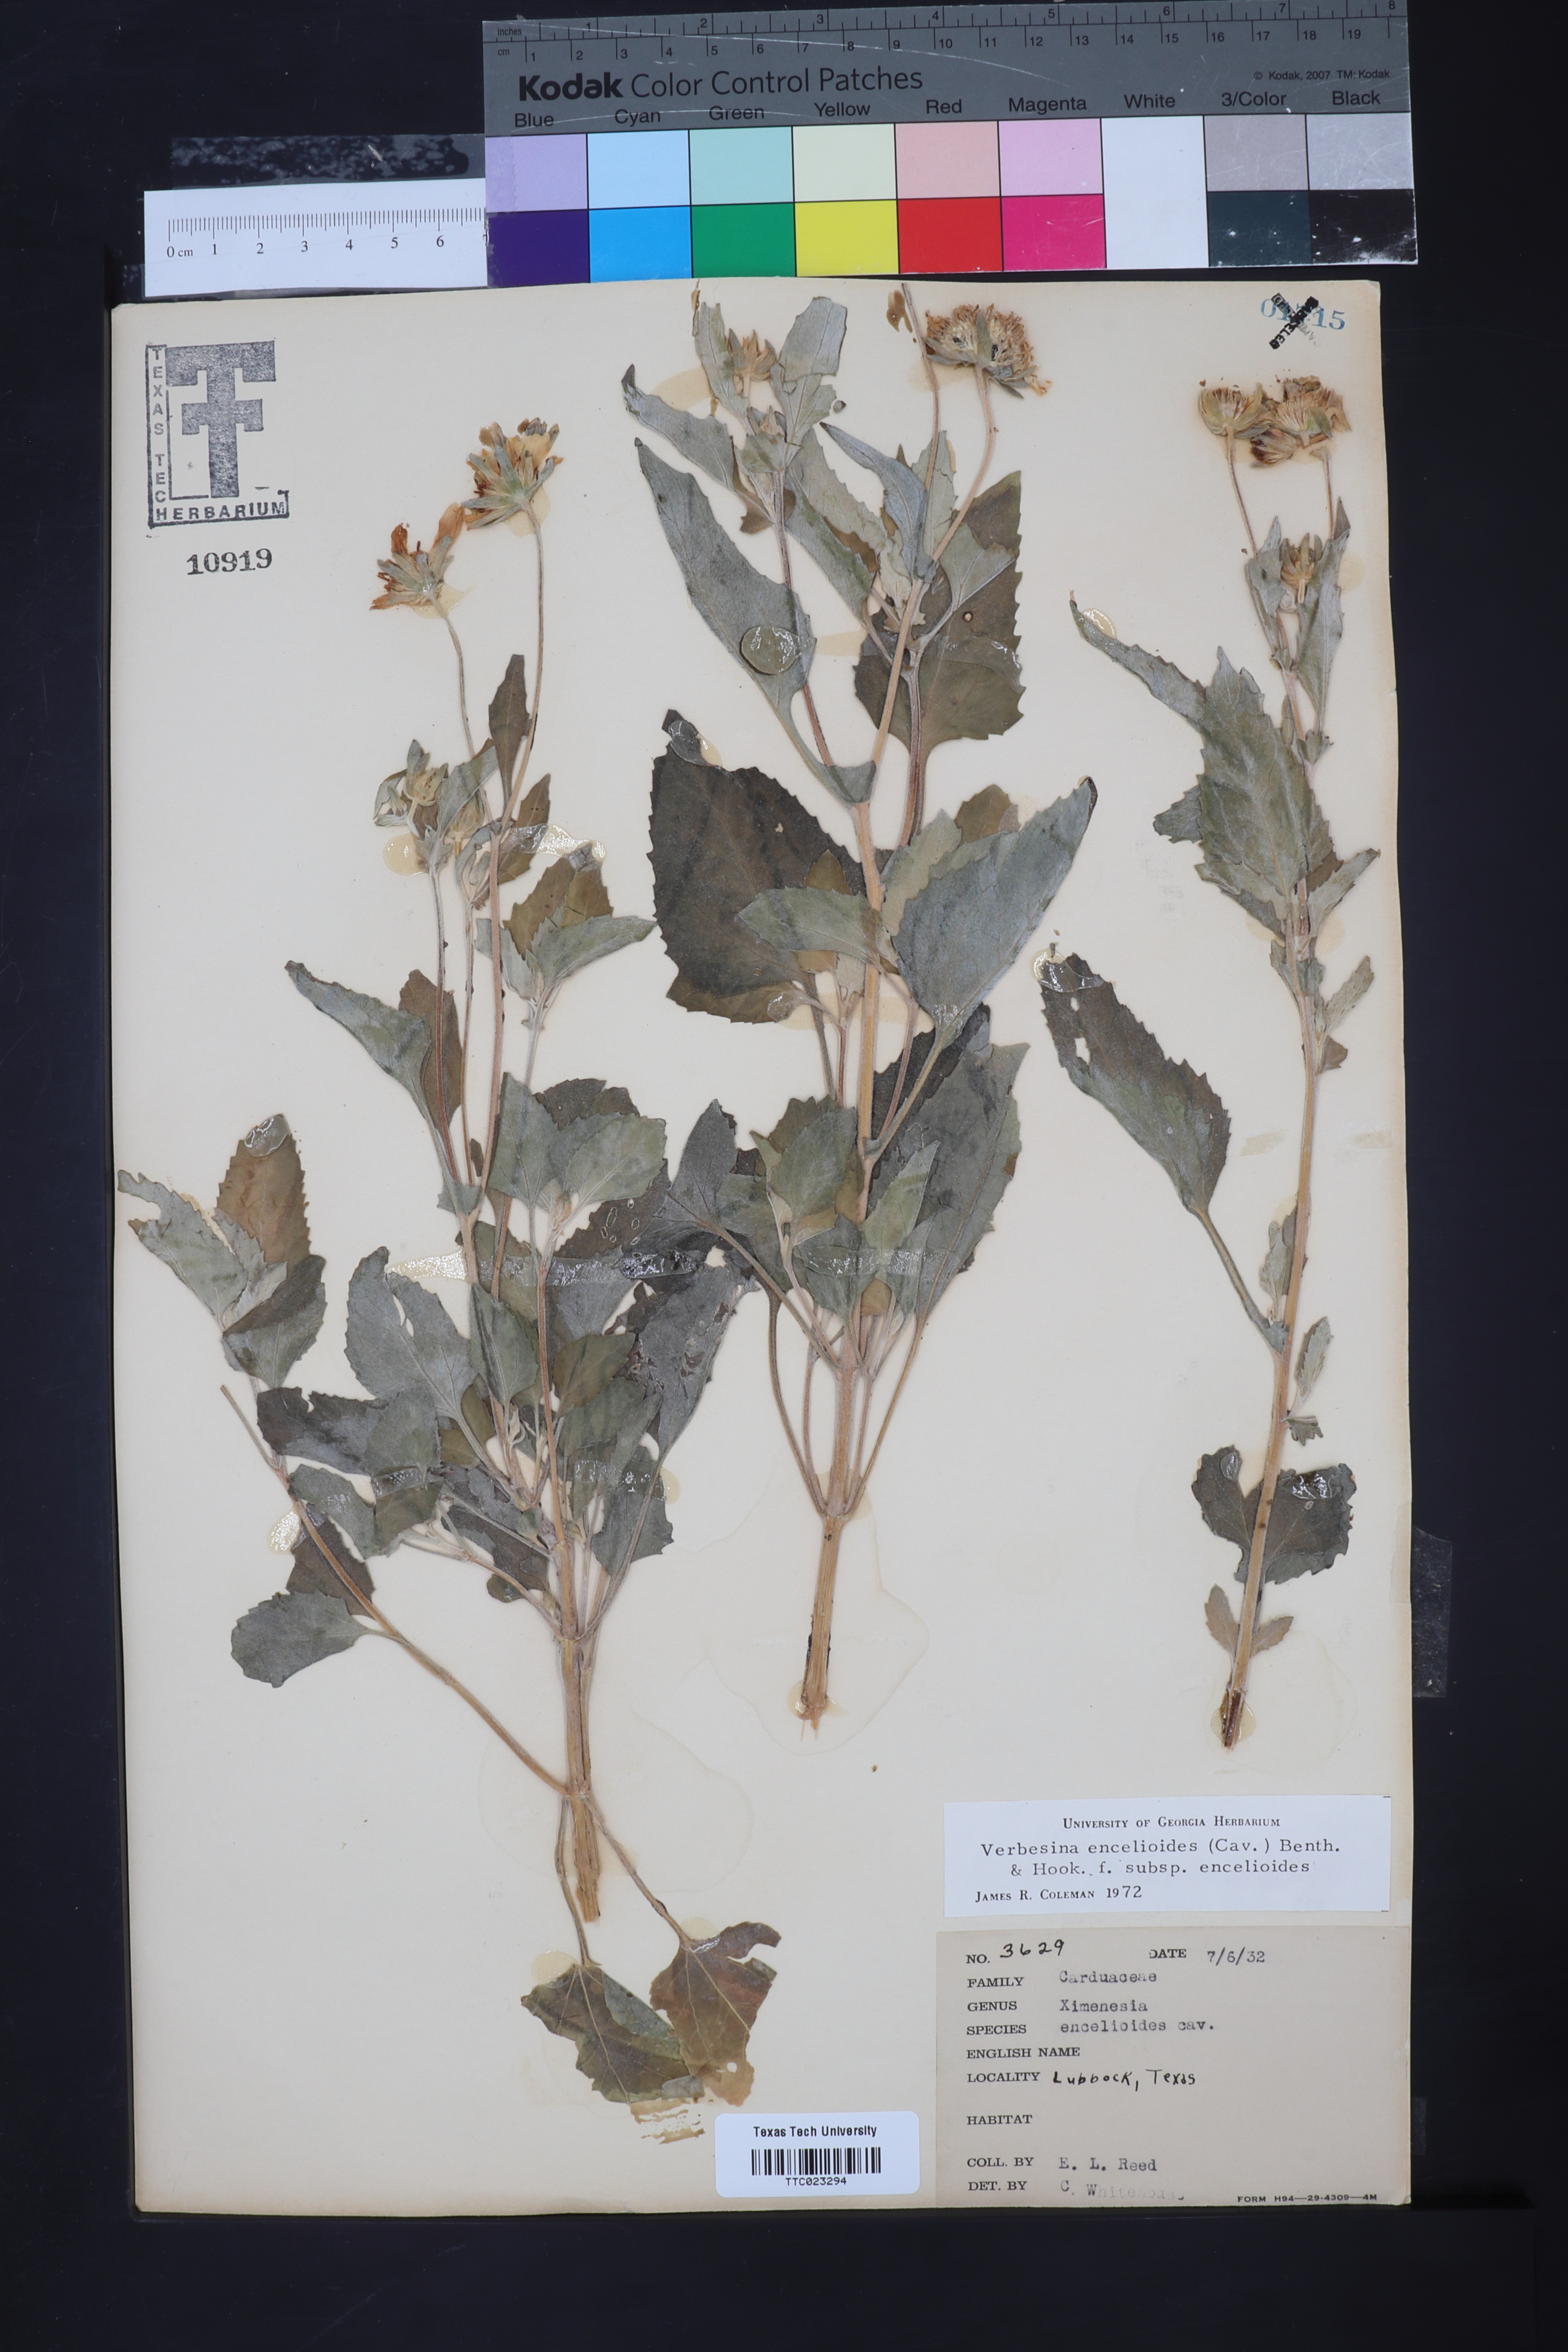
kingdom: Plantae
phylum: Tracheophyta
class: Magnoliopsida
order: Asterales
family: Asteraceae
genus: Verbesina
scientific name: Verbesina encelioides
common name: Golden crownbeard
